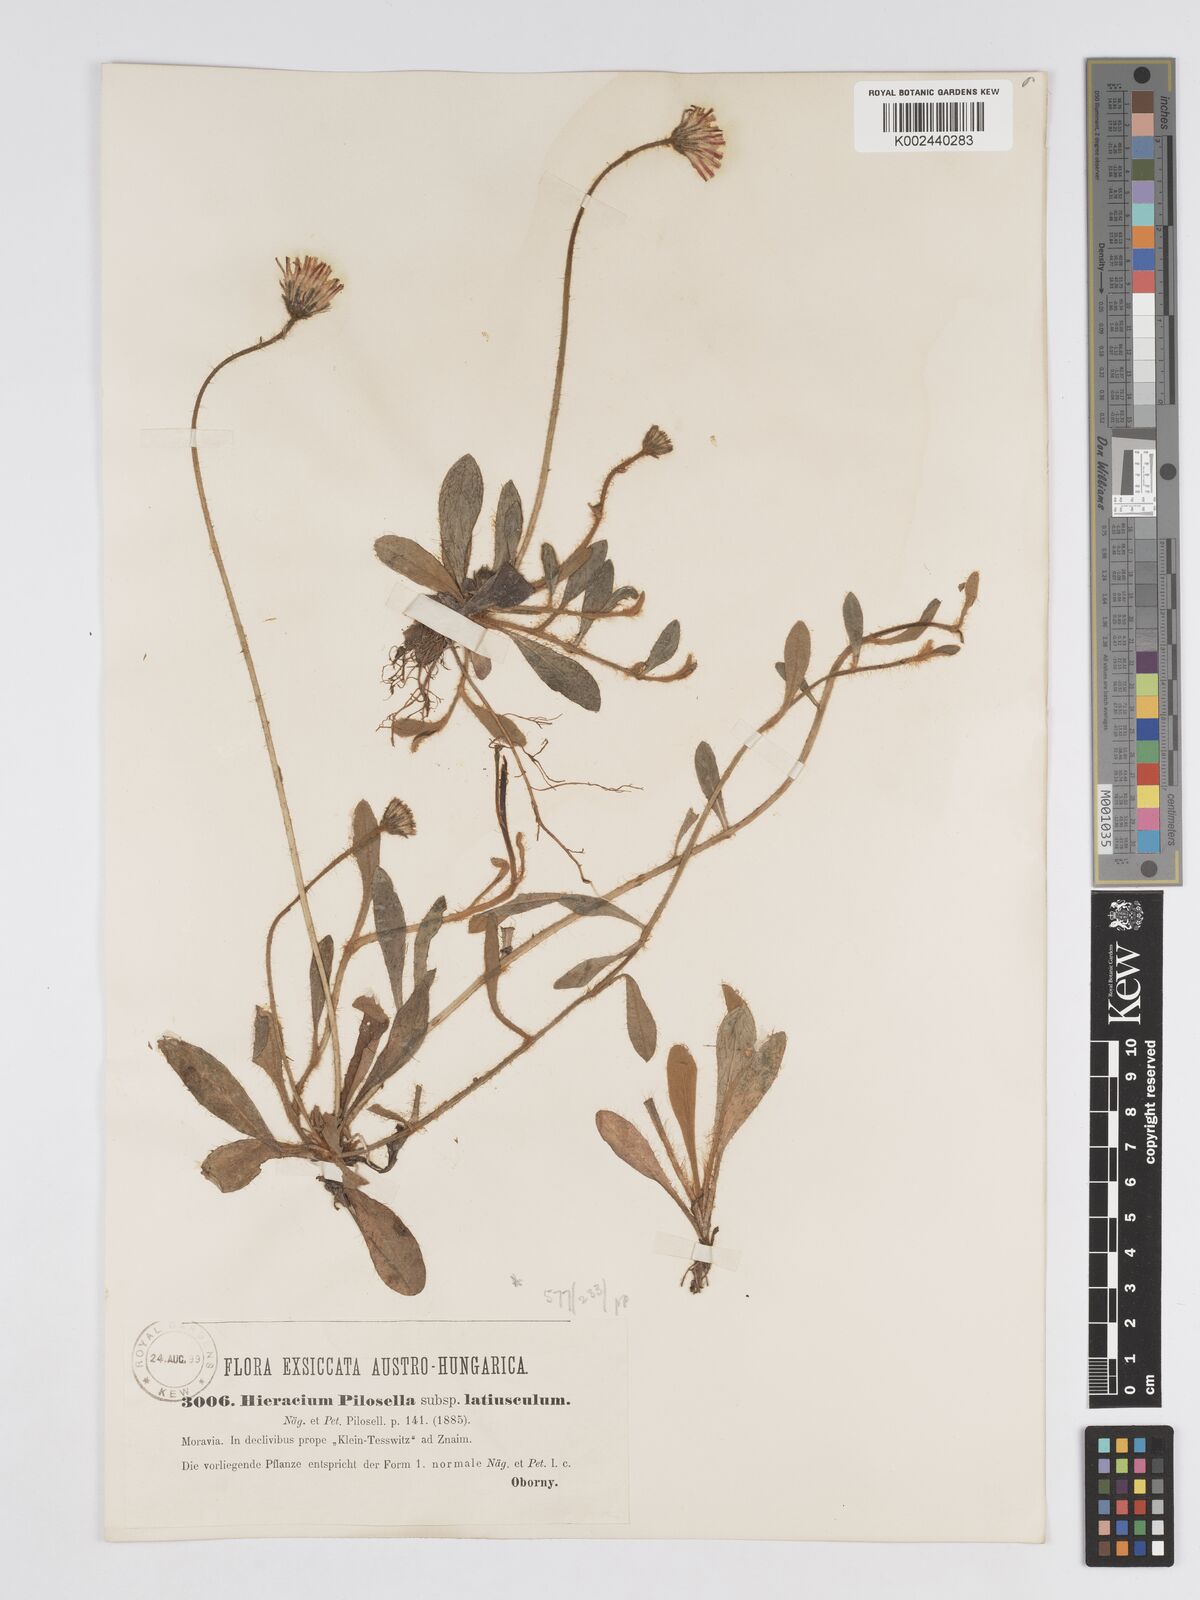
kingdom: Plantae
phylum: Tracheophyta
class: Magnoliopsida
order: Asterales
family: Asteraceae
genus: Pilosella
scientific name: Pilosella officinarum
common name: Mouse-ear hawkweed
